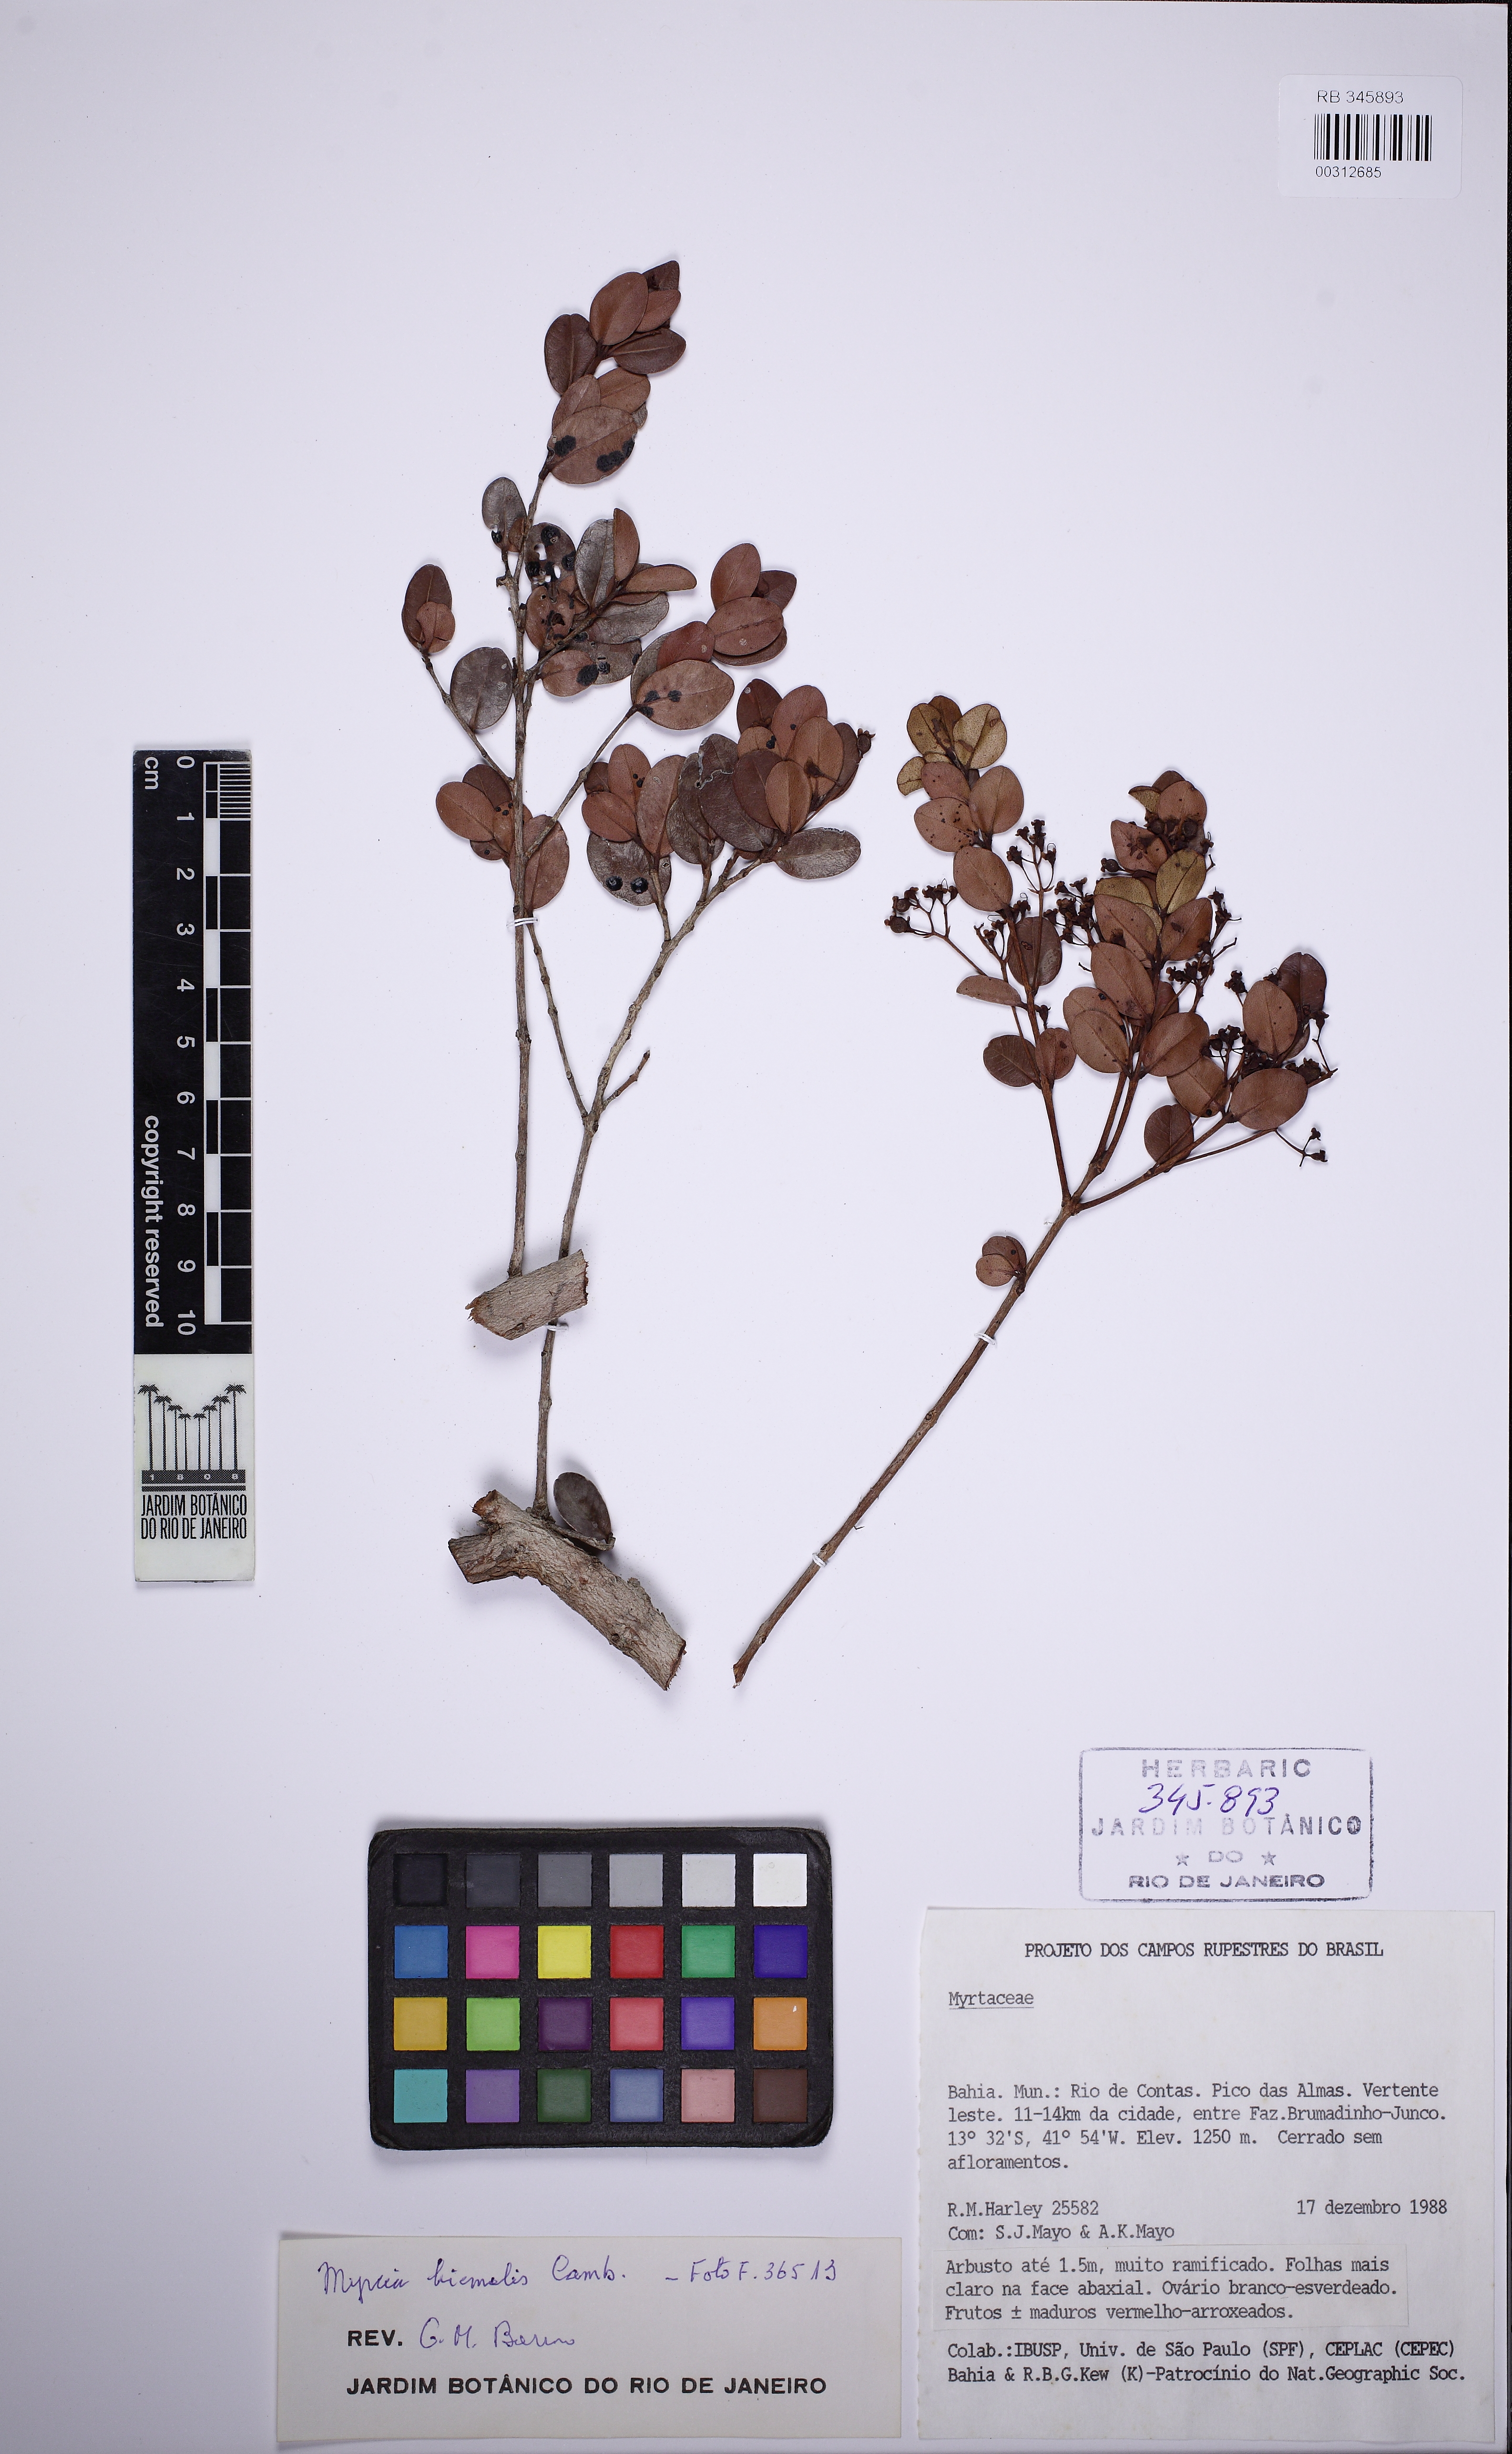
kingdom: Plantae
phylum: Tracheophyta
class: Magnoliopsida
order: Myrtales
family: Myrtaceae
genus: Myrcia
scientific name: Myrcia guianensis
